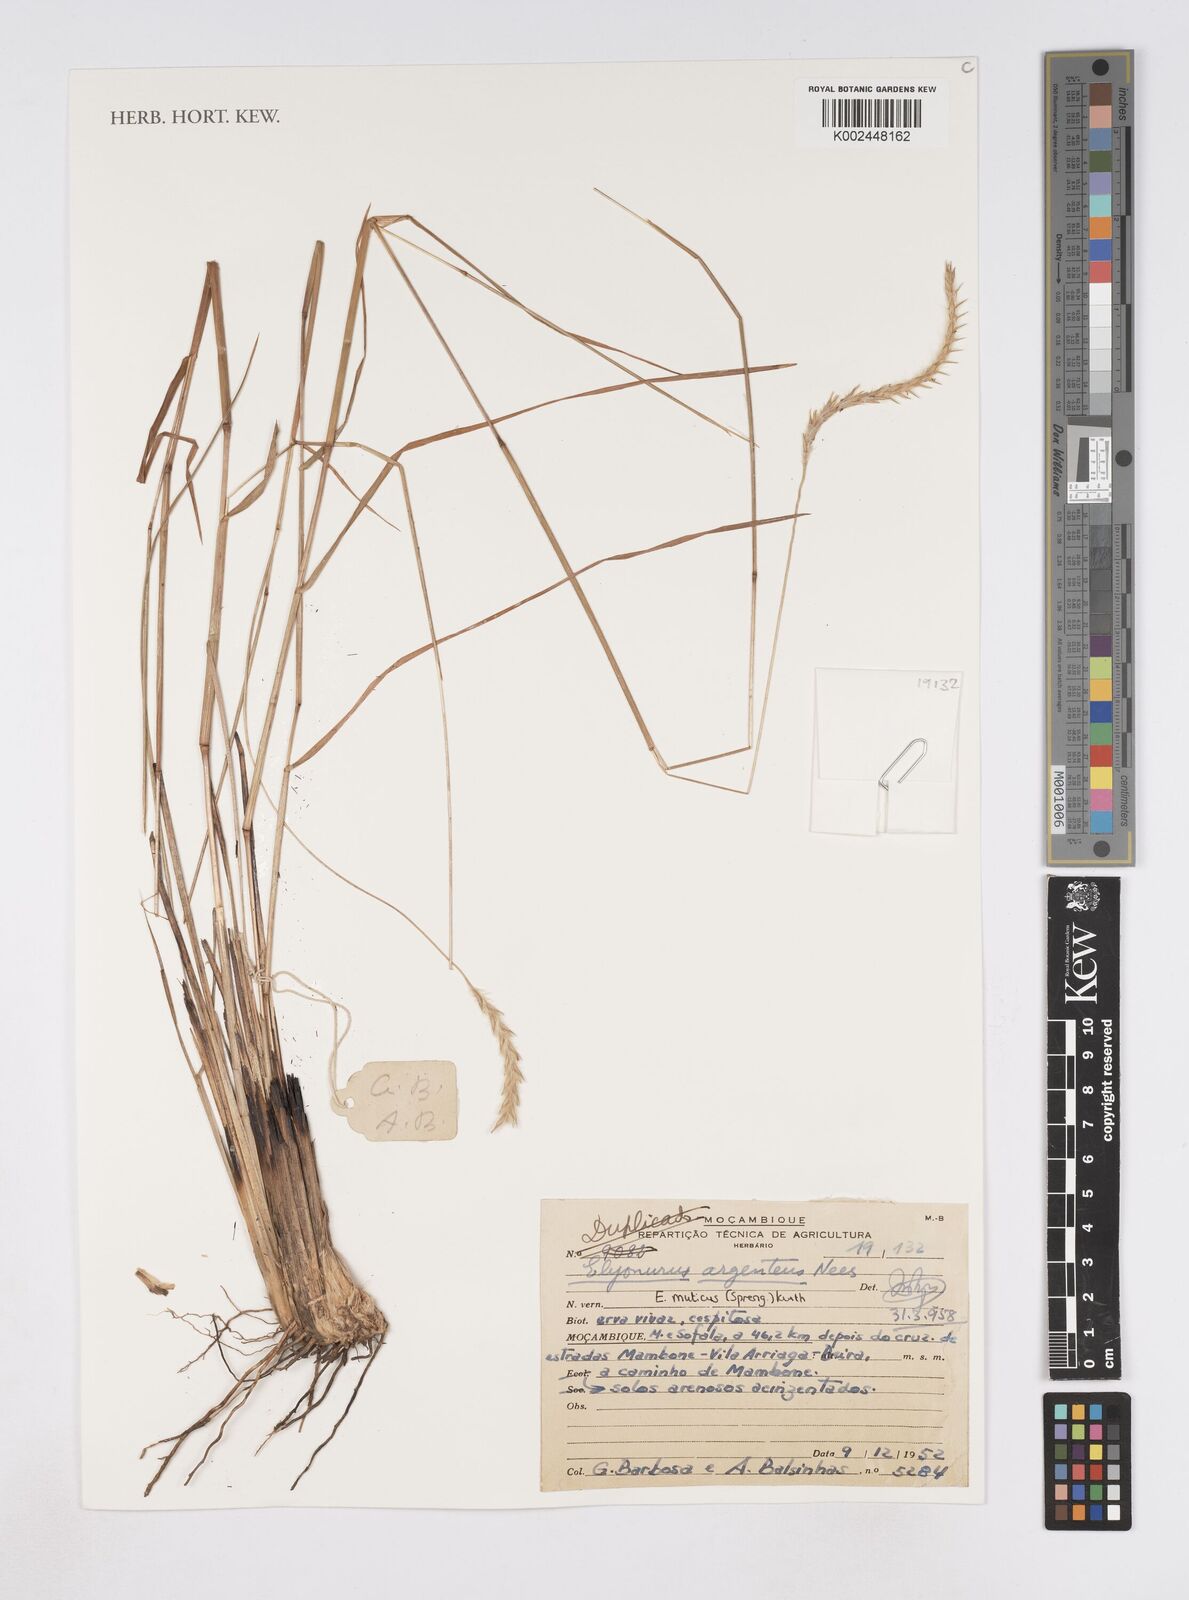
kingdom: Plantae
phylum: Tracheophyta
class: Liliopsida
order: Poales
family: Poaceae
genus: Elionurus
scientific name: Elionurus muticus
